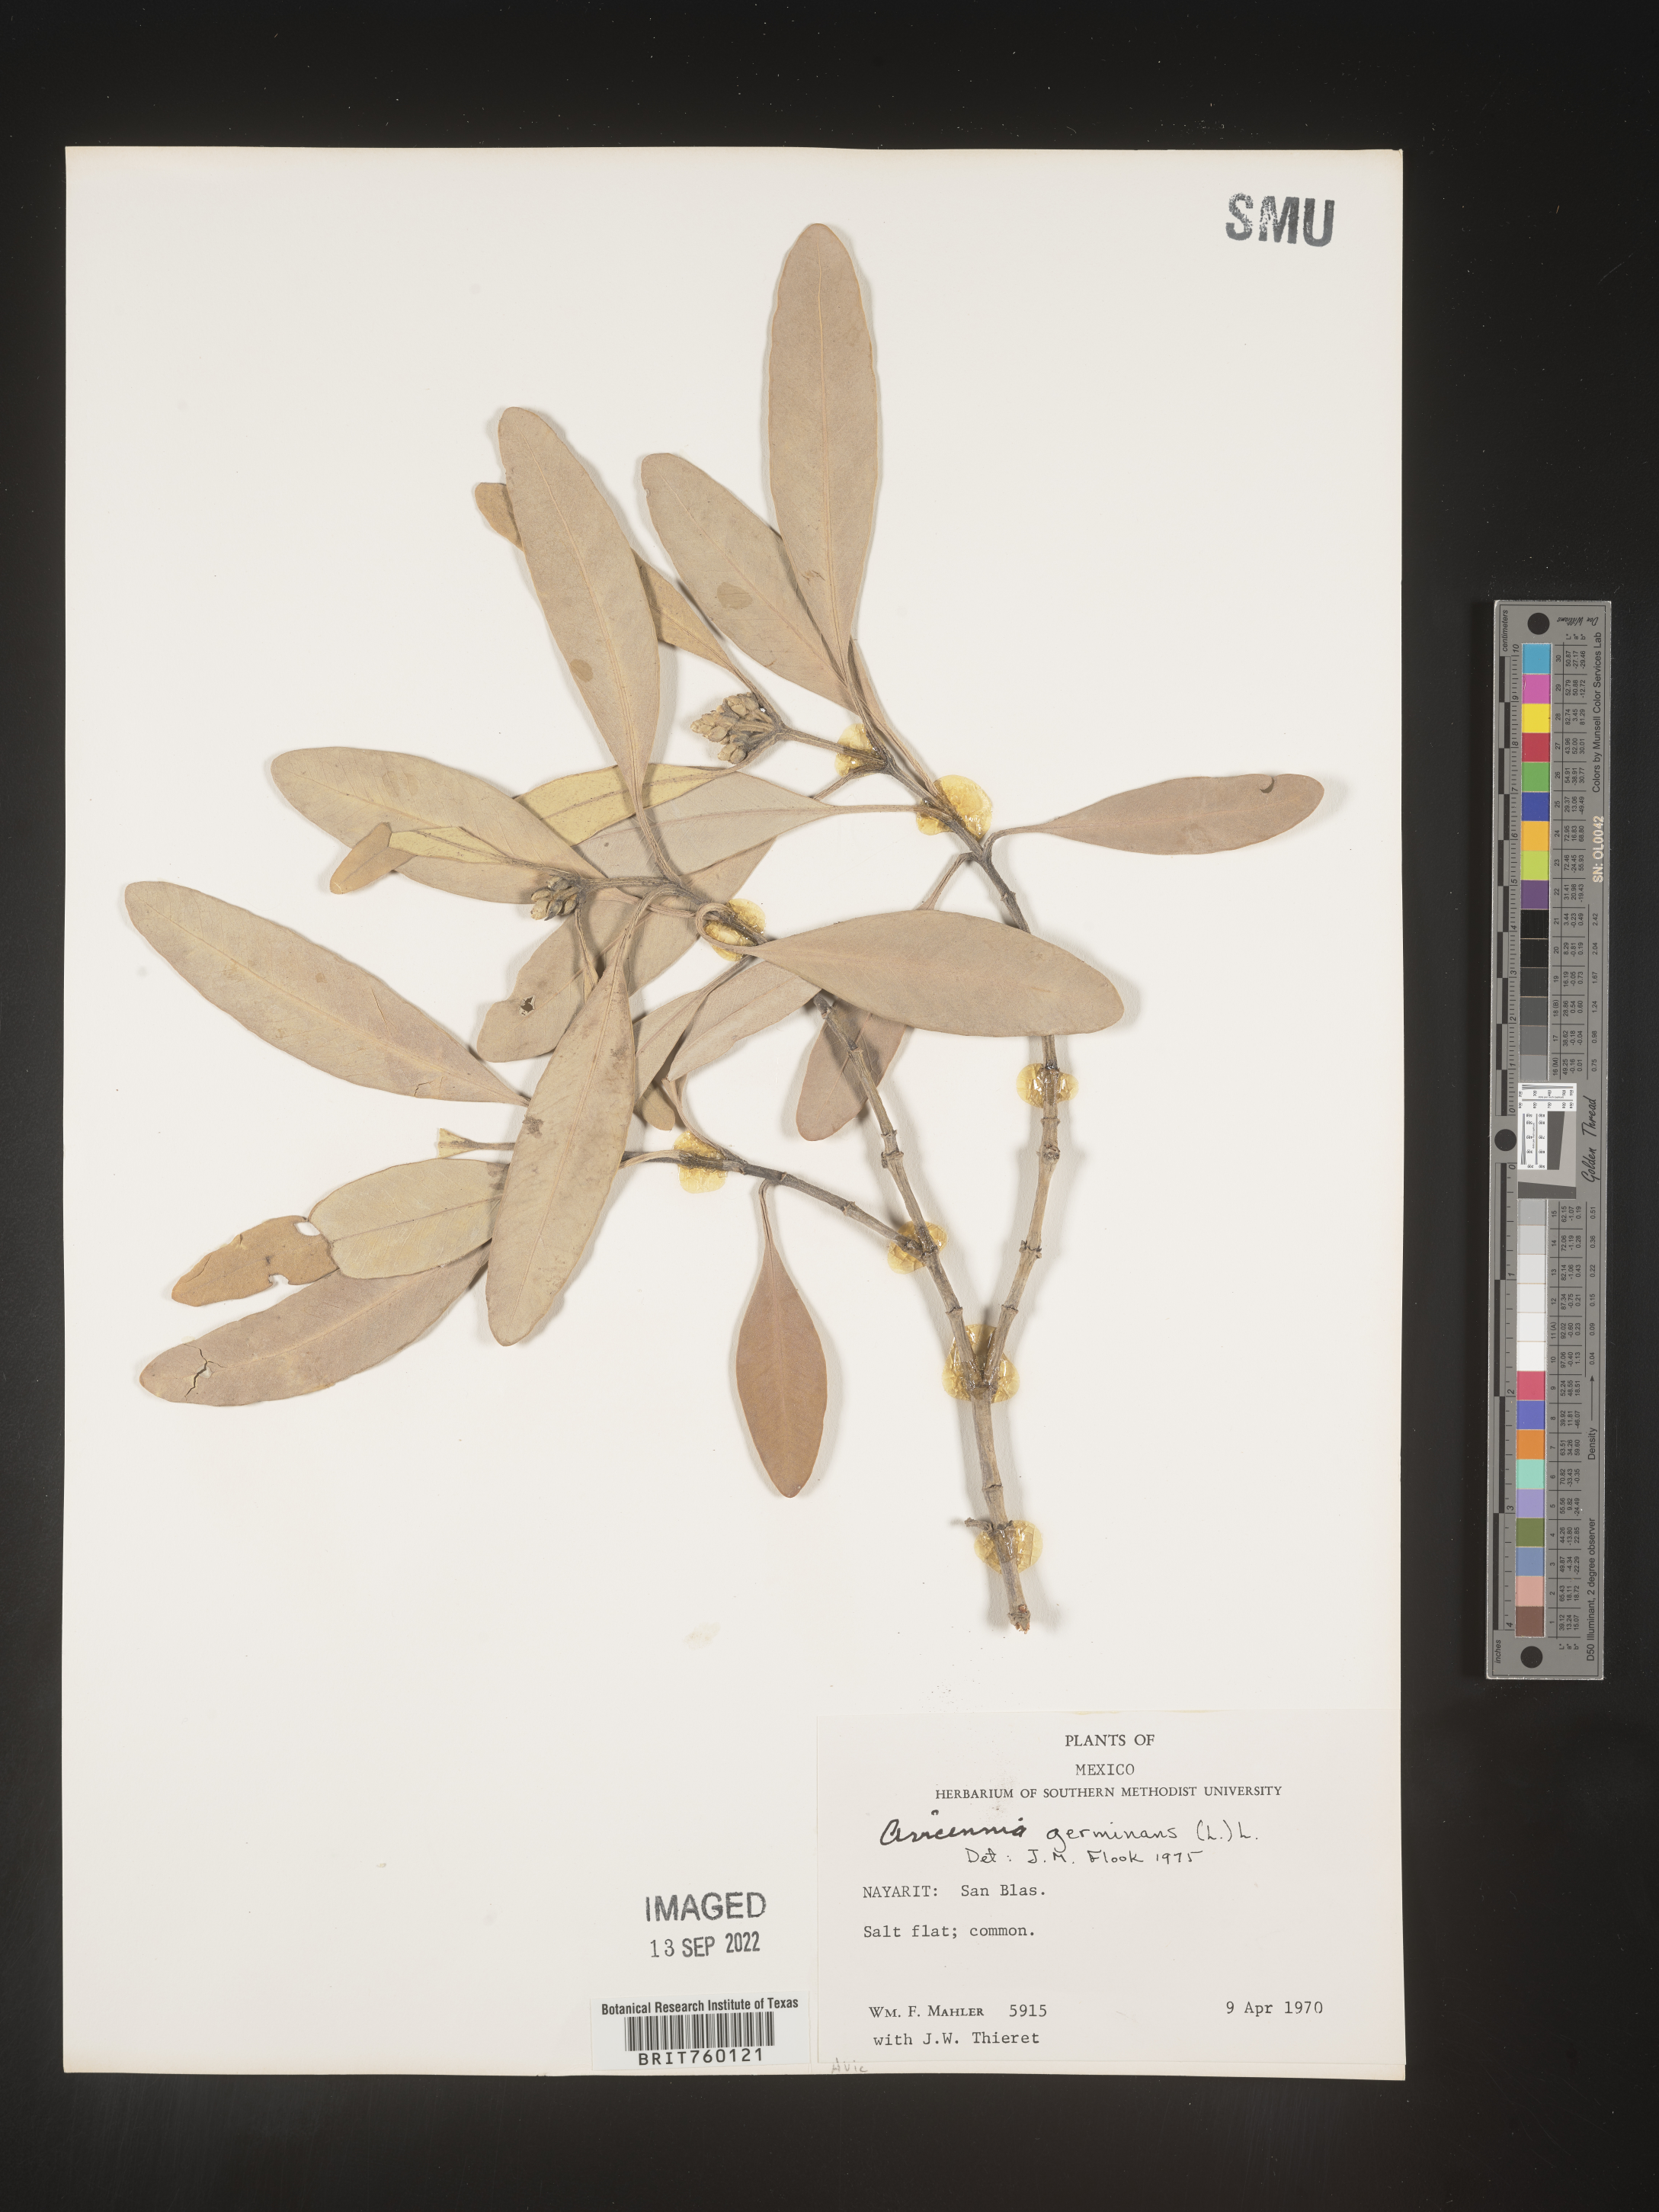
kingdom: Plantae
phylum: Tracheophyta
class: Magnoliopsida
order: Lamiales
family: Acanthaceae
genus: Avicennia
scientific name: Avicennia
